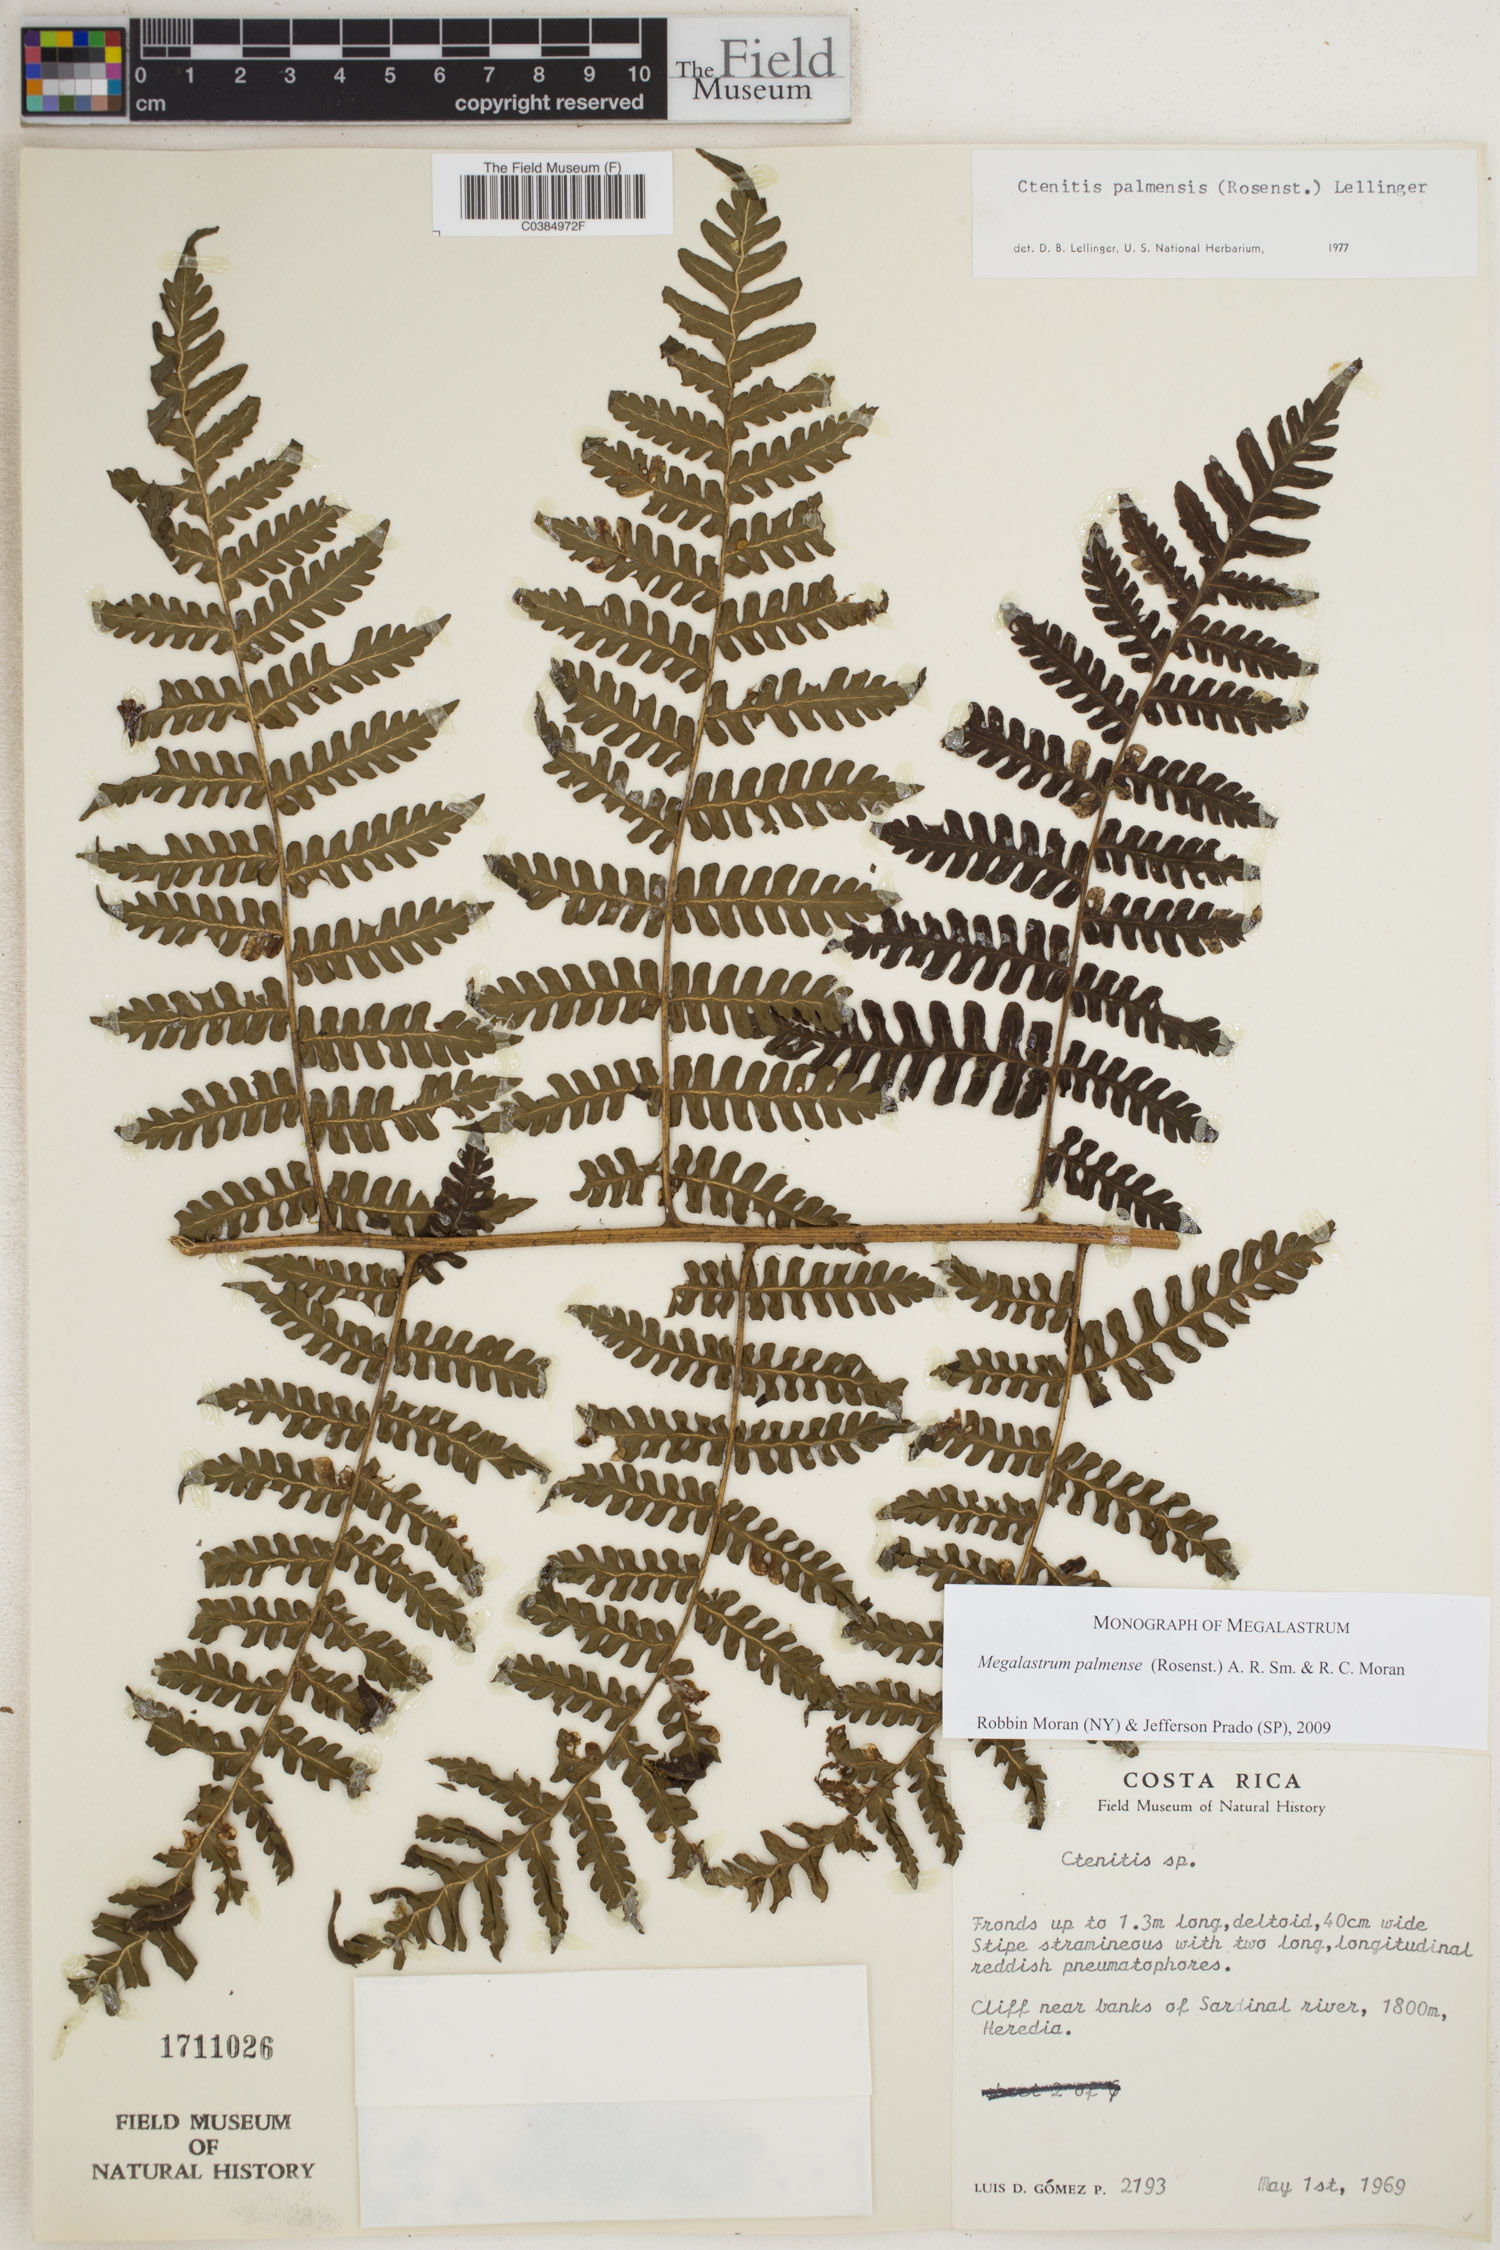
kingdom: Plantae
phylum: Tracheophyta
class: Polypodiopsida
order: Polypodiales
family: Dryopteridaceae
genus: Megalastrum
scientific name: Megalastrum palmense
